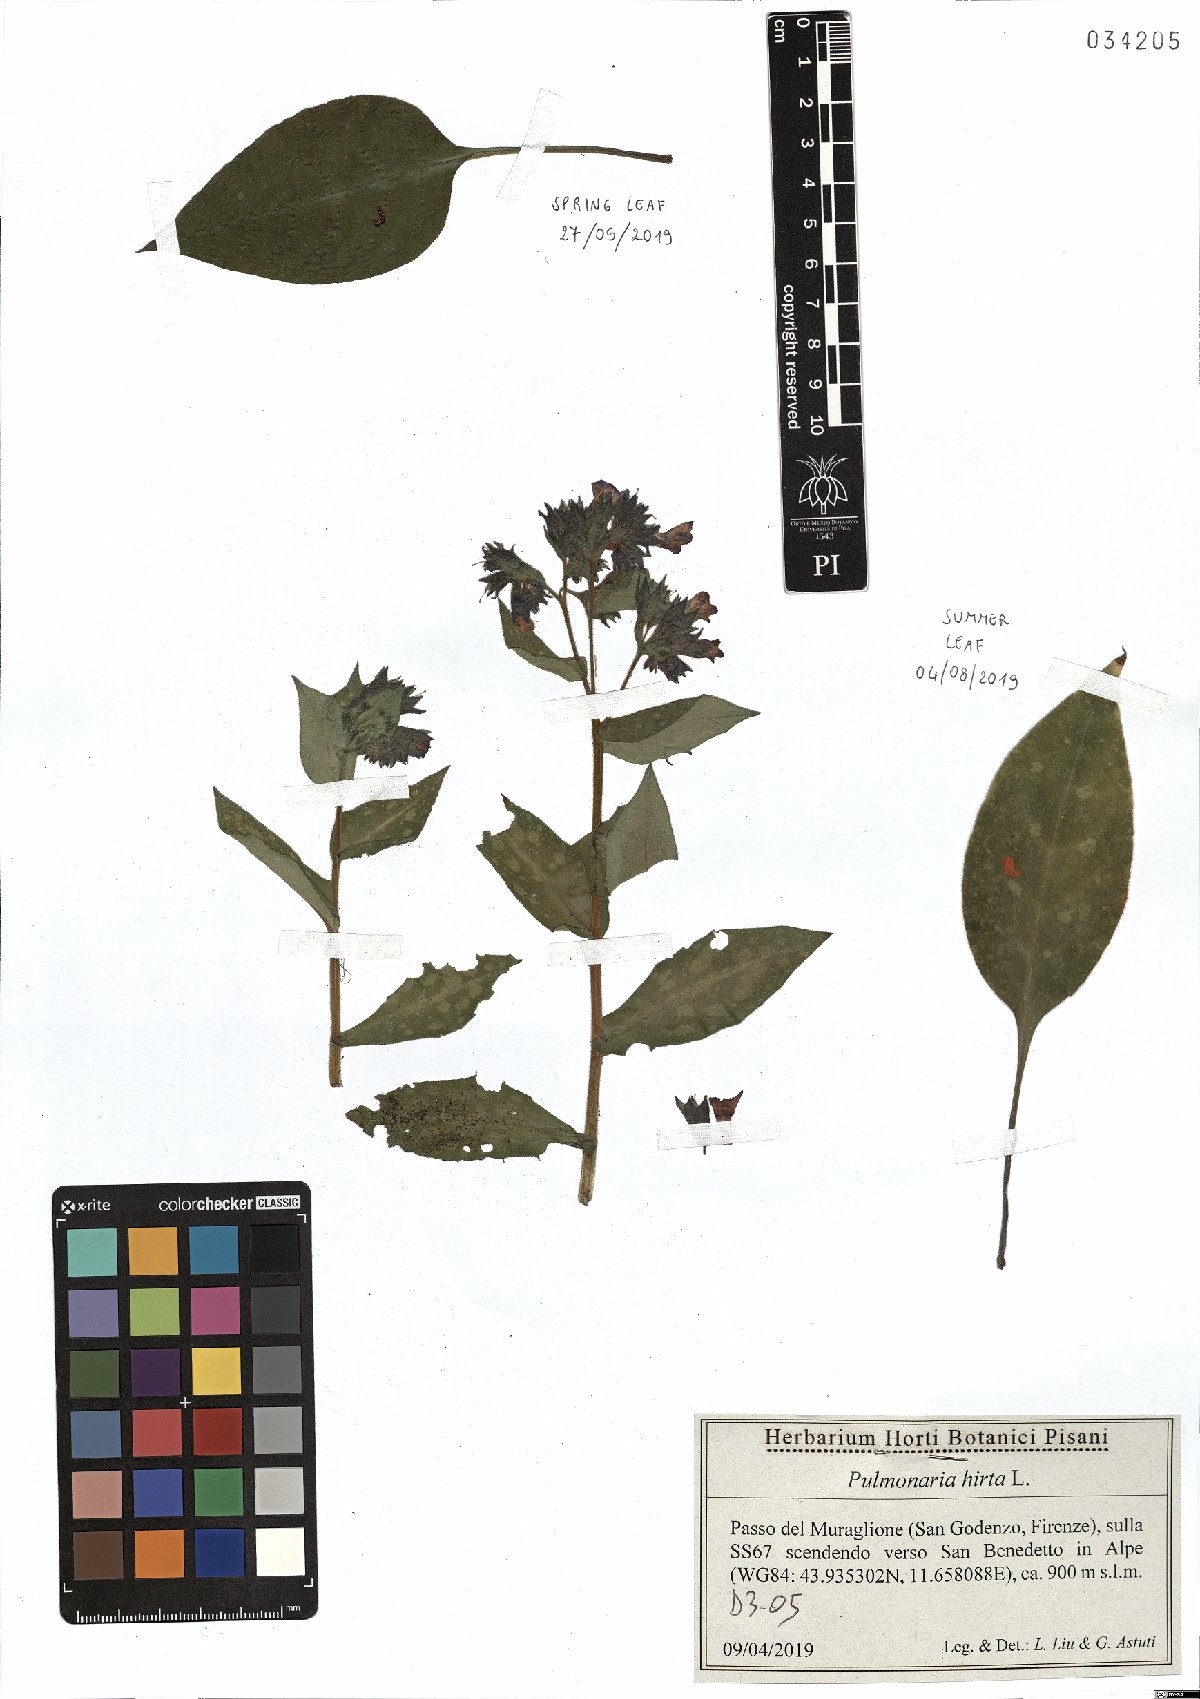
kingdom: Plantae
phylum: Tracheophyta
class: Magnoliopsida
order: Boraginales
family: Boraginaceae
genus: Pulmonaria
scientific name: Pulmonaria hirta
